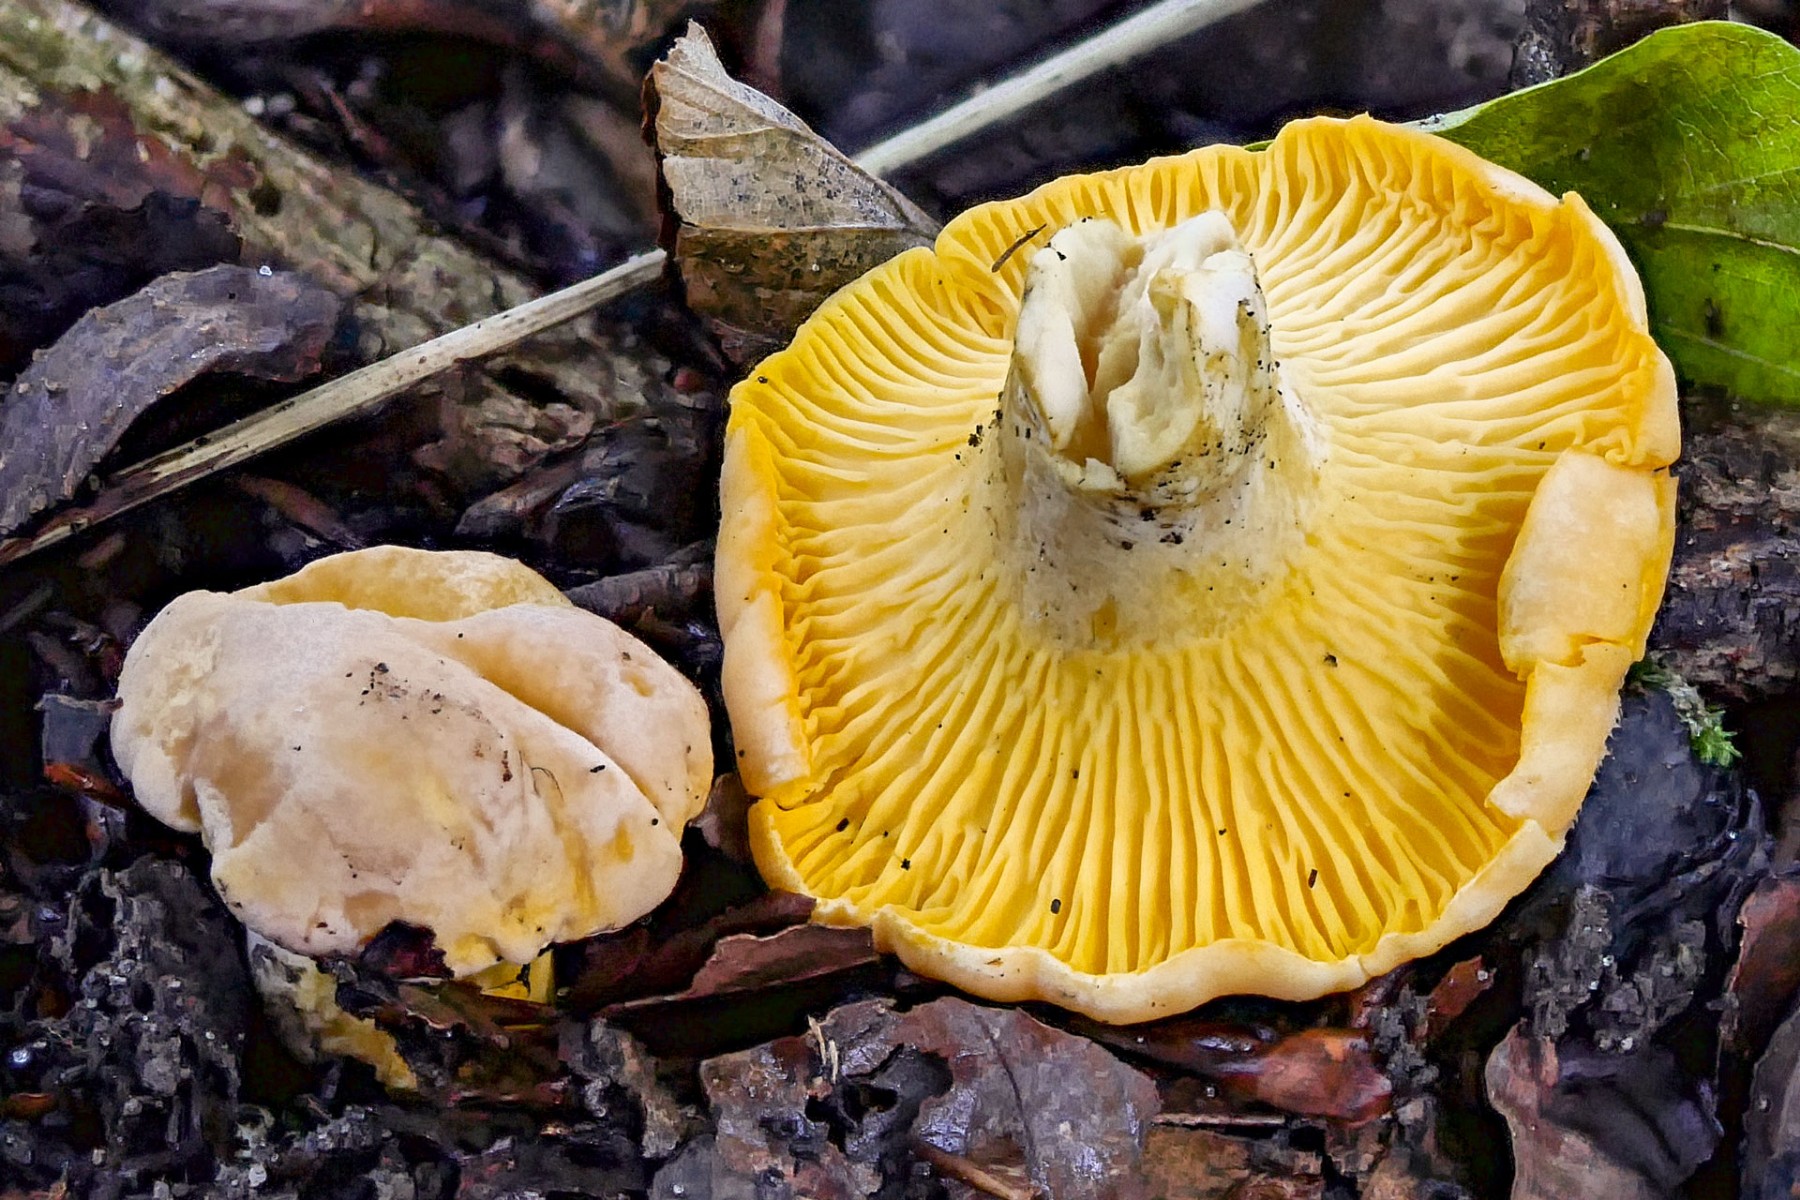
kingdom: Fungi
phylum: Basidiomycota
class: Agaricomycetes
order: Cantharellales
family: Hydnaceae
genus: Cantharellus
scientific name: Cantharellus pallens
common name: bleg kantarel
